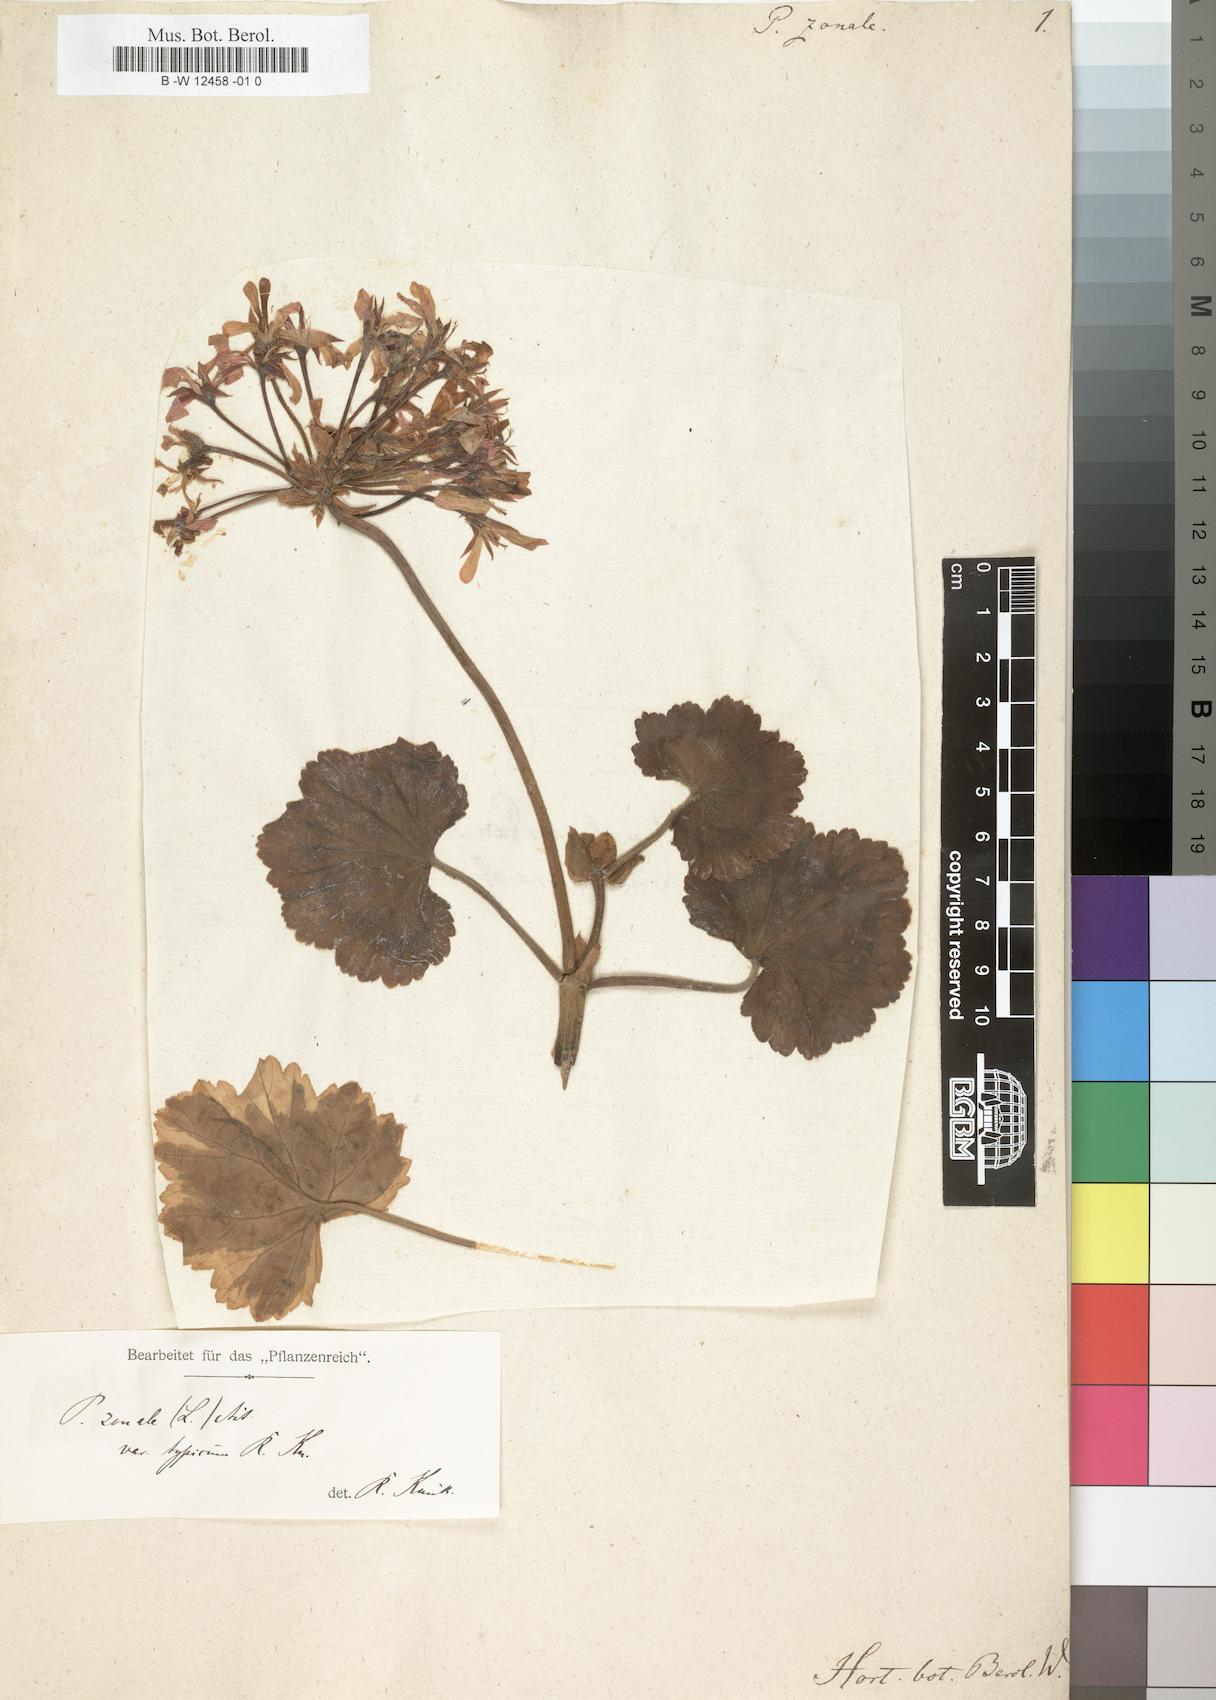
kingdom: Plantae
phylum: Tracheophyta
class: Magnoliopsida
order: Geraniales
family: Geraniaceae
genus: Pelargonium
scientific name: Pelargonium zonale
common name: Horseshoe geranium
